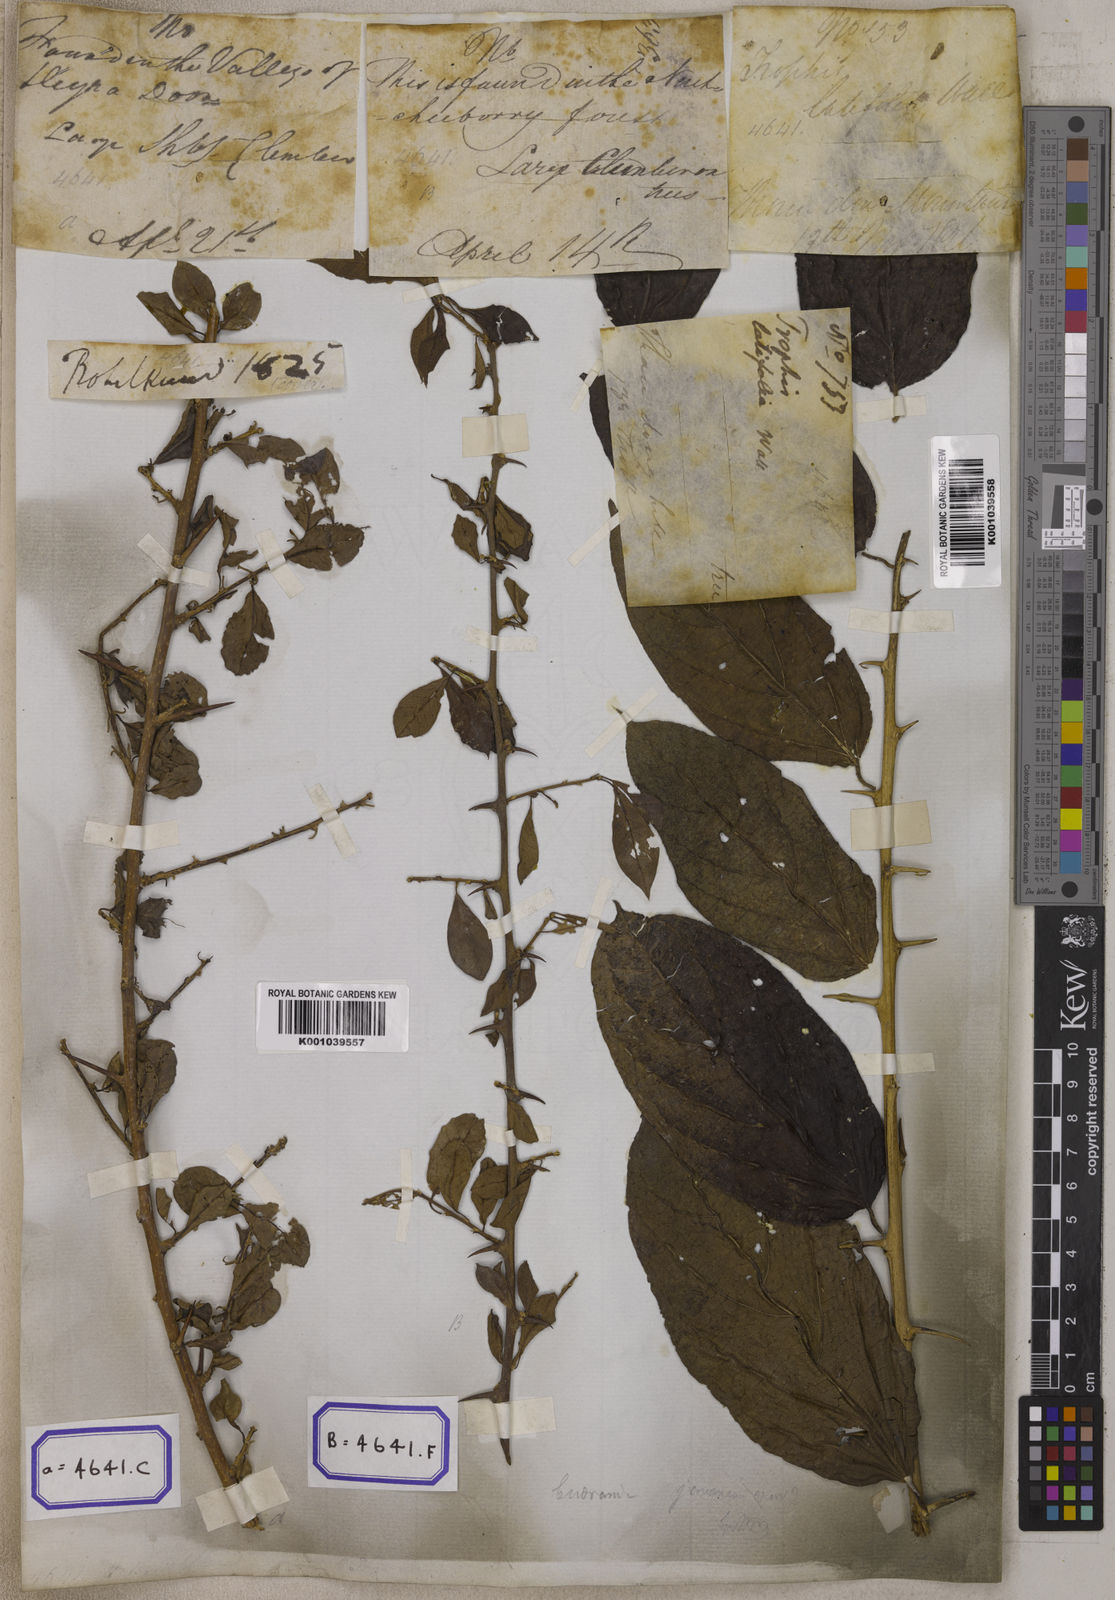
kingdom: Plantae
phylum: Tracheophyta
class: Magnoliopsida
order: Rosales
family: Moraceae
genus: Taxotrophis
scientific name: Taxotrophis taxoides
